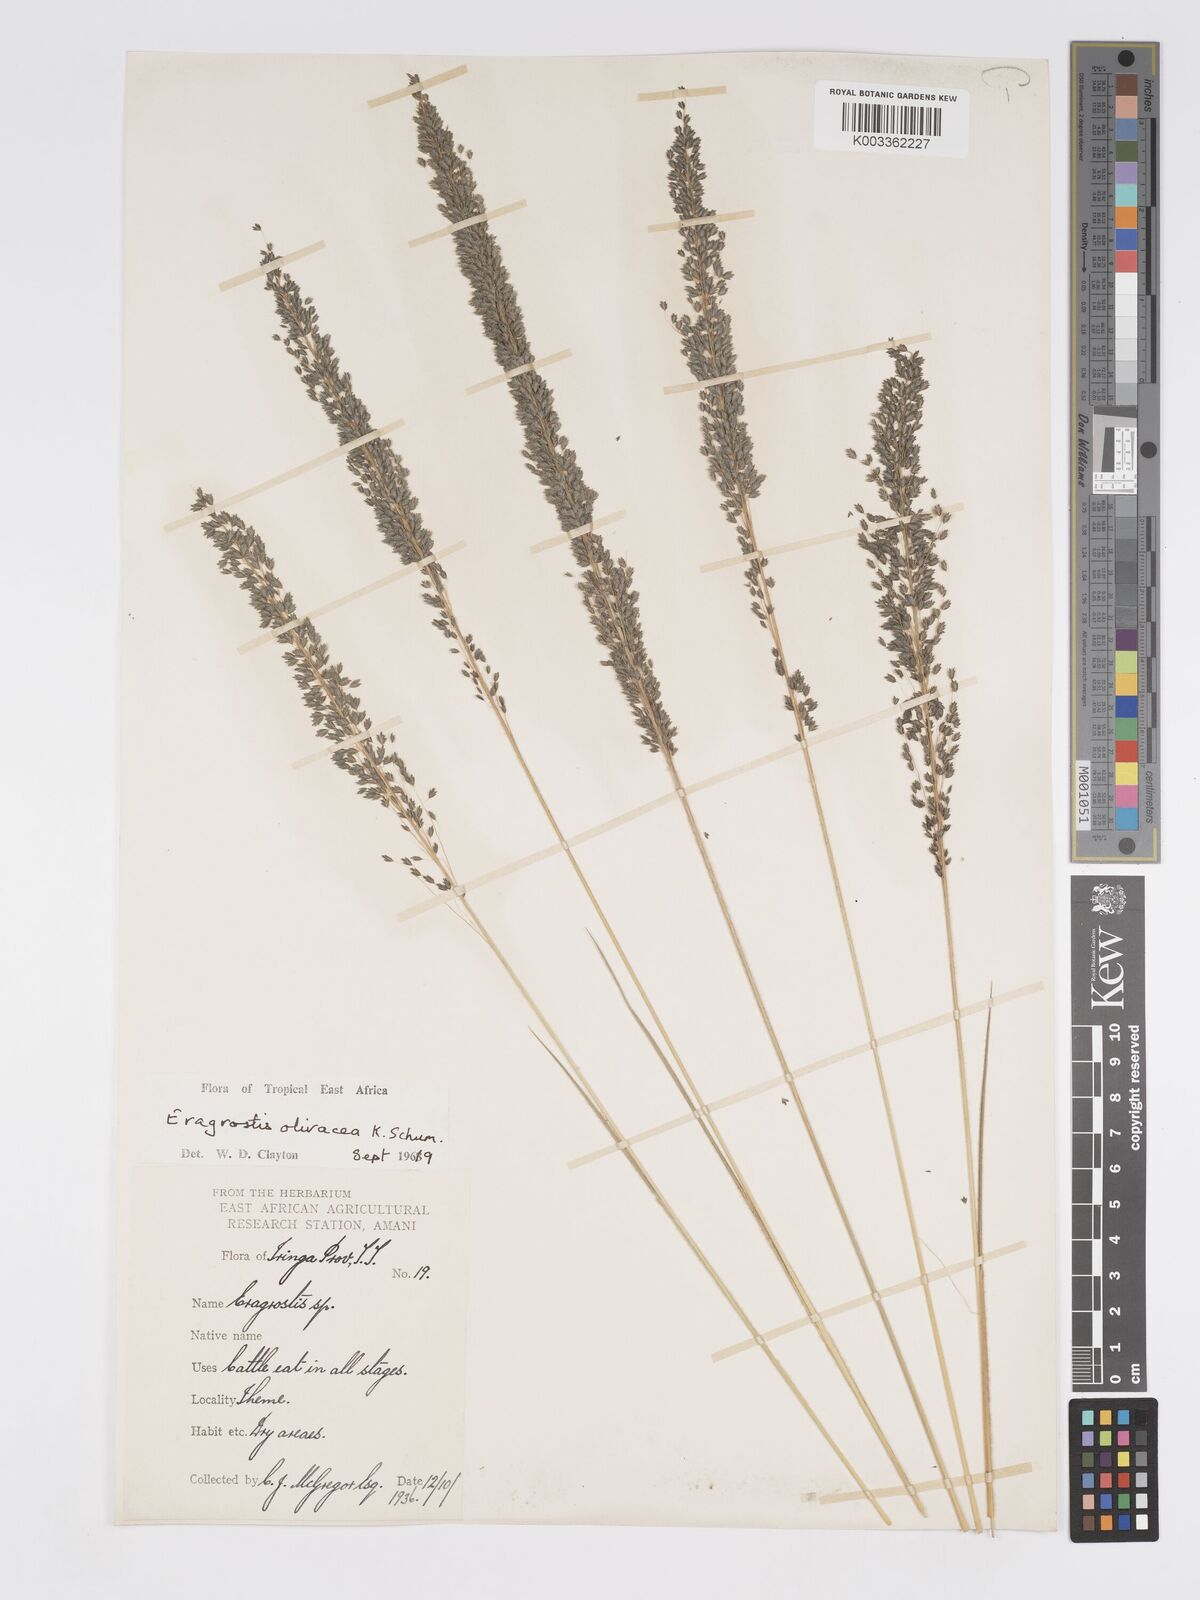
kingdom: Plantae
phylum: Tracheophyta
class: Liliopsida
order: Poales
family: Poaceae
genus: Eragrostis
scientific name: Eragrostis olivacea
